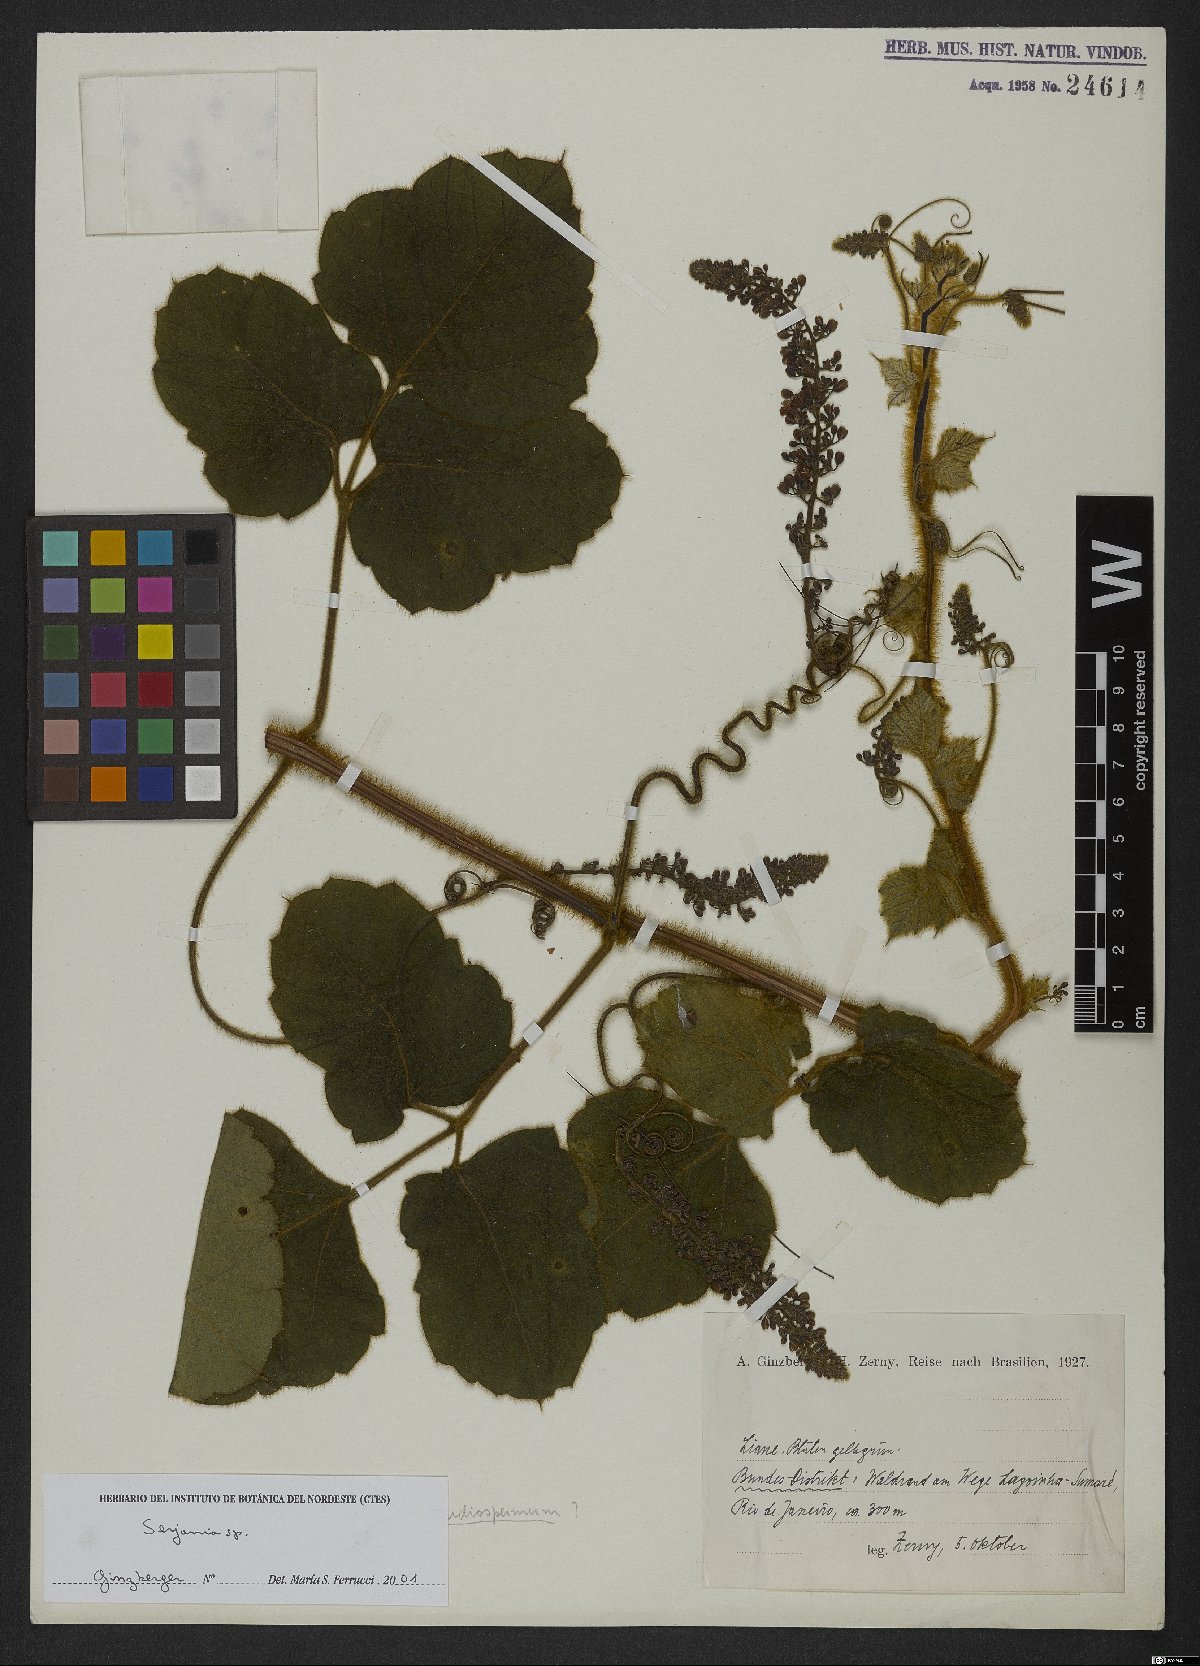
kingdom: Plantae
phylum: Tracheophyta
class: Magnoliopsida
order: Sapindales
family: Sapindaceae
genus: Serjania
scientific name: Serjania
